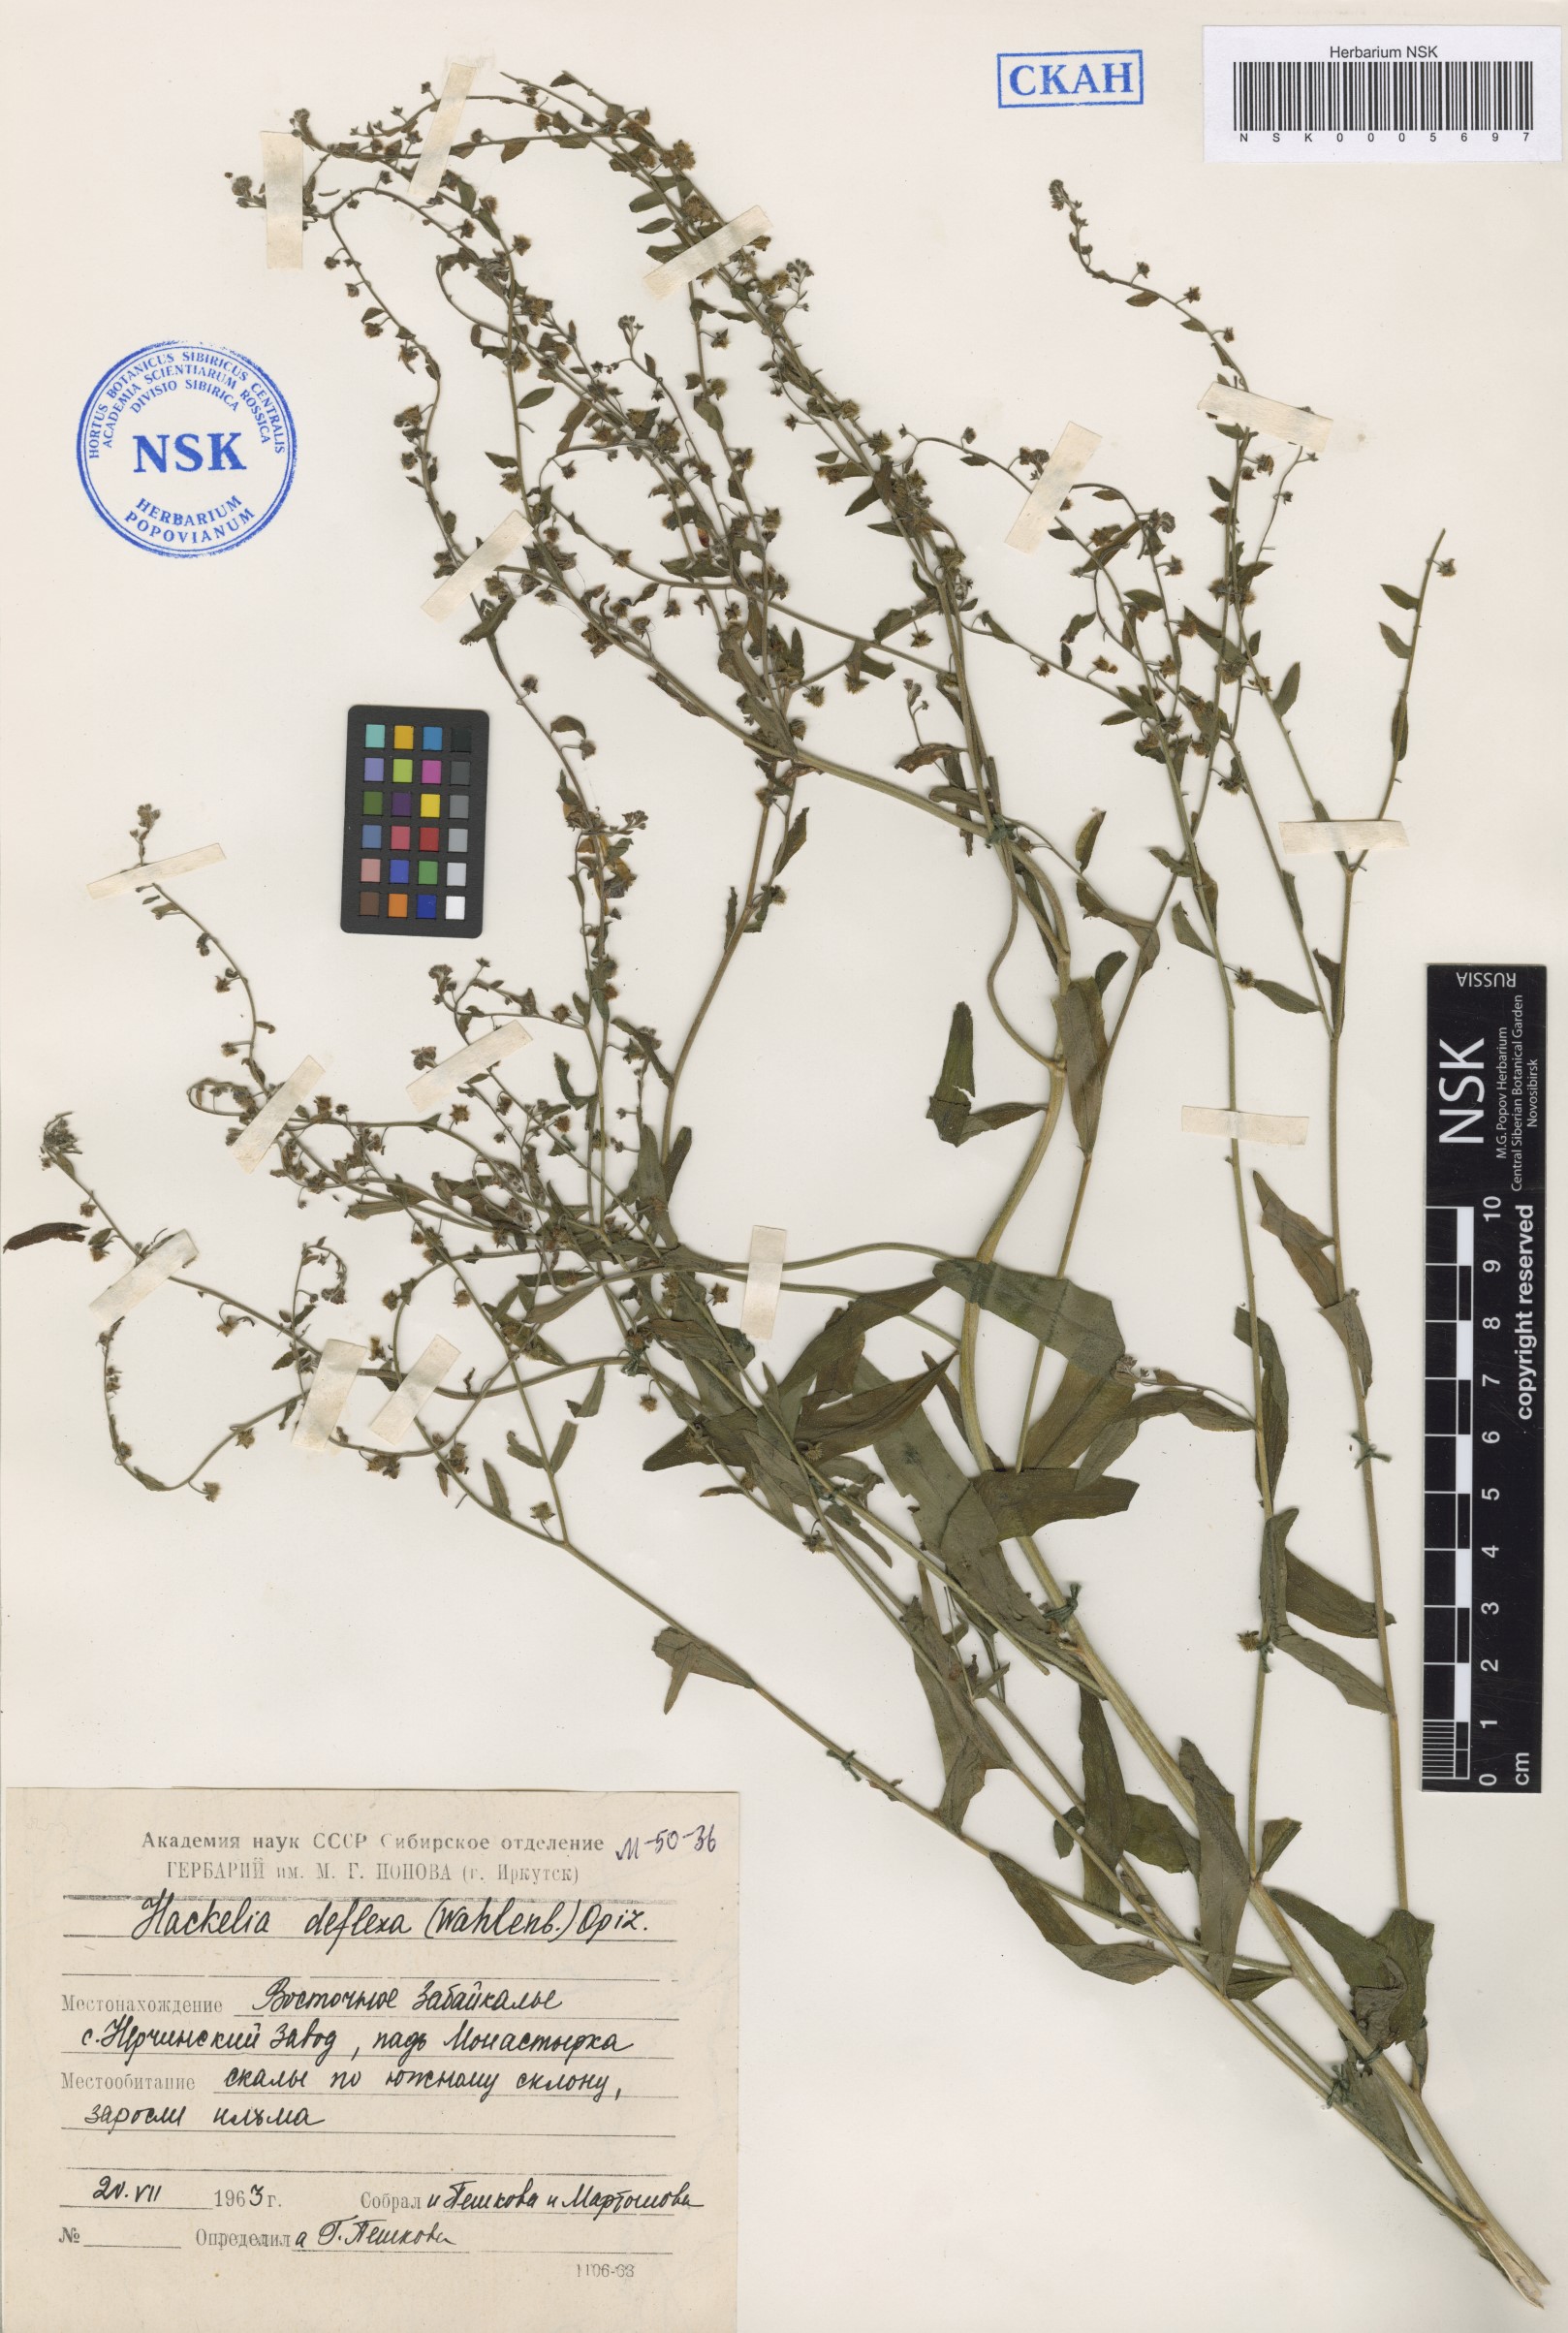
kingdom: Plantae
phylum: Tracheophyta
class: Magnoliopsida
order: Boraginales
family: Boraginaceae
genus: Hackelia
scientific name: Hackelia deflexa
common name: Nodding stickseed
